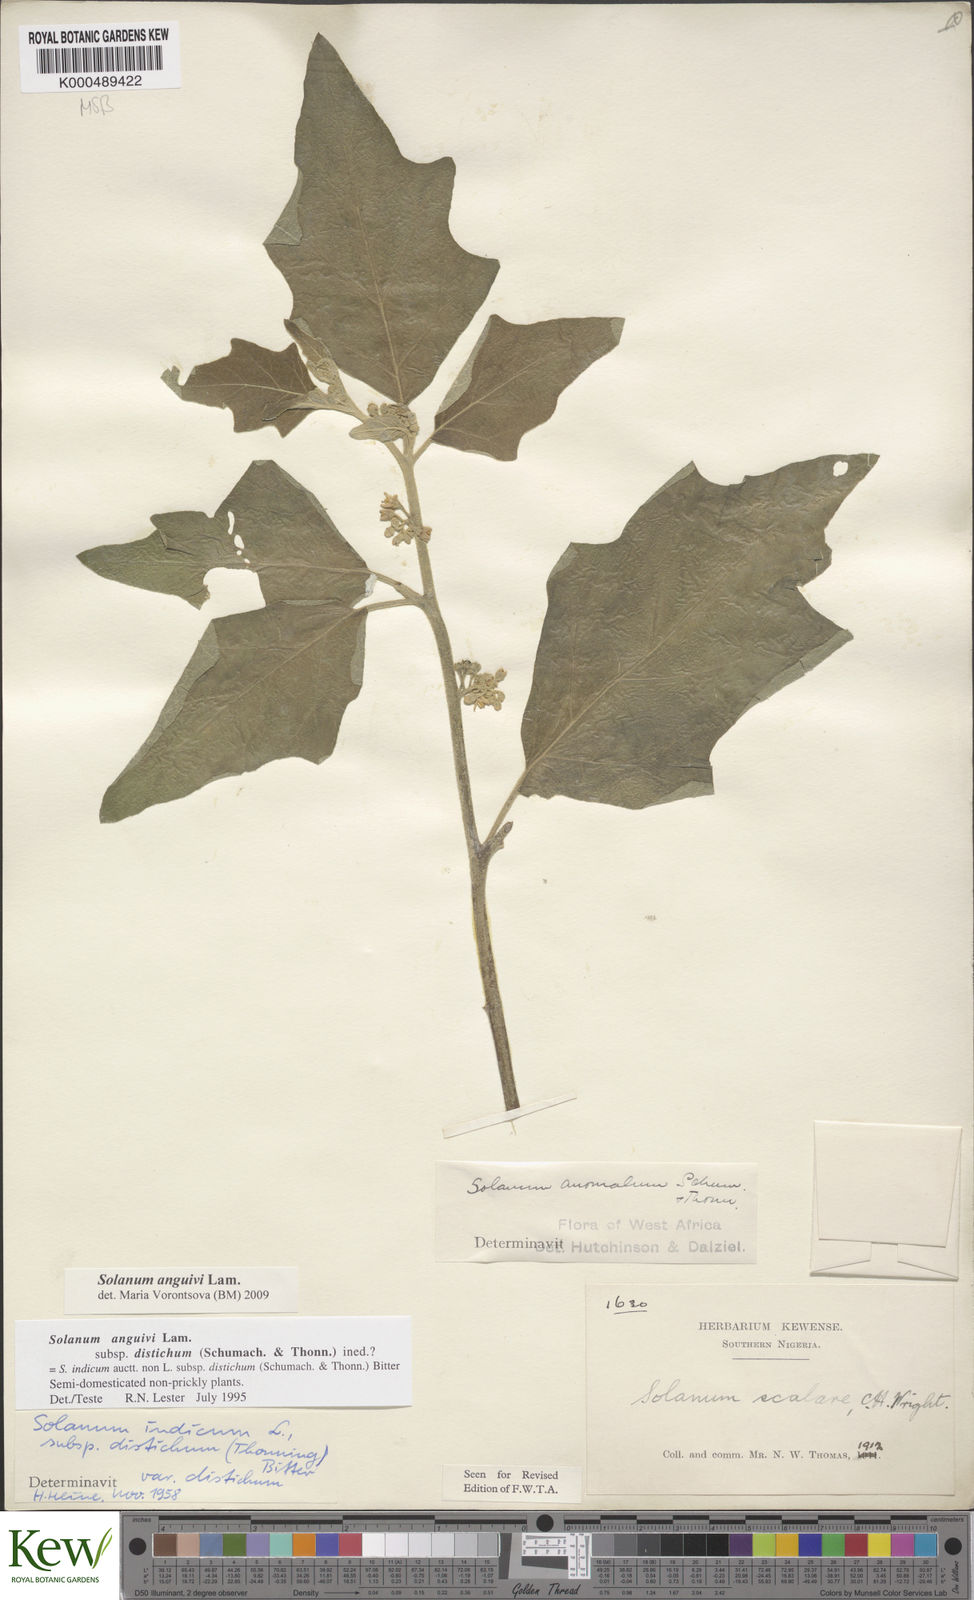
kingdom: Plantae
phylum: Tracheophyta
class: Magnoliopsida
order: Solanales
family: Solanaceae
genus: Solanum
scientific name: Solanum anguivi
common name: Forest bitterberry
